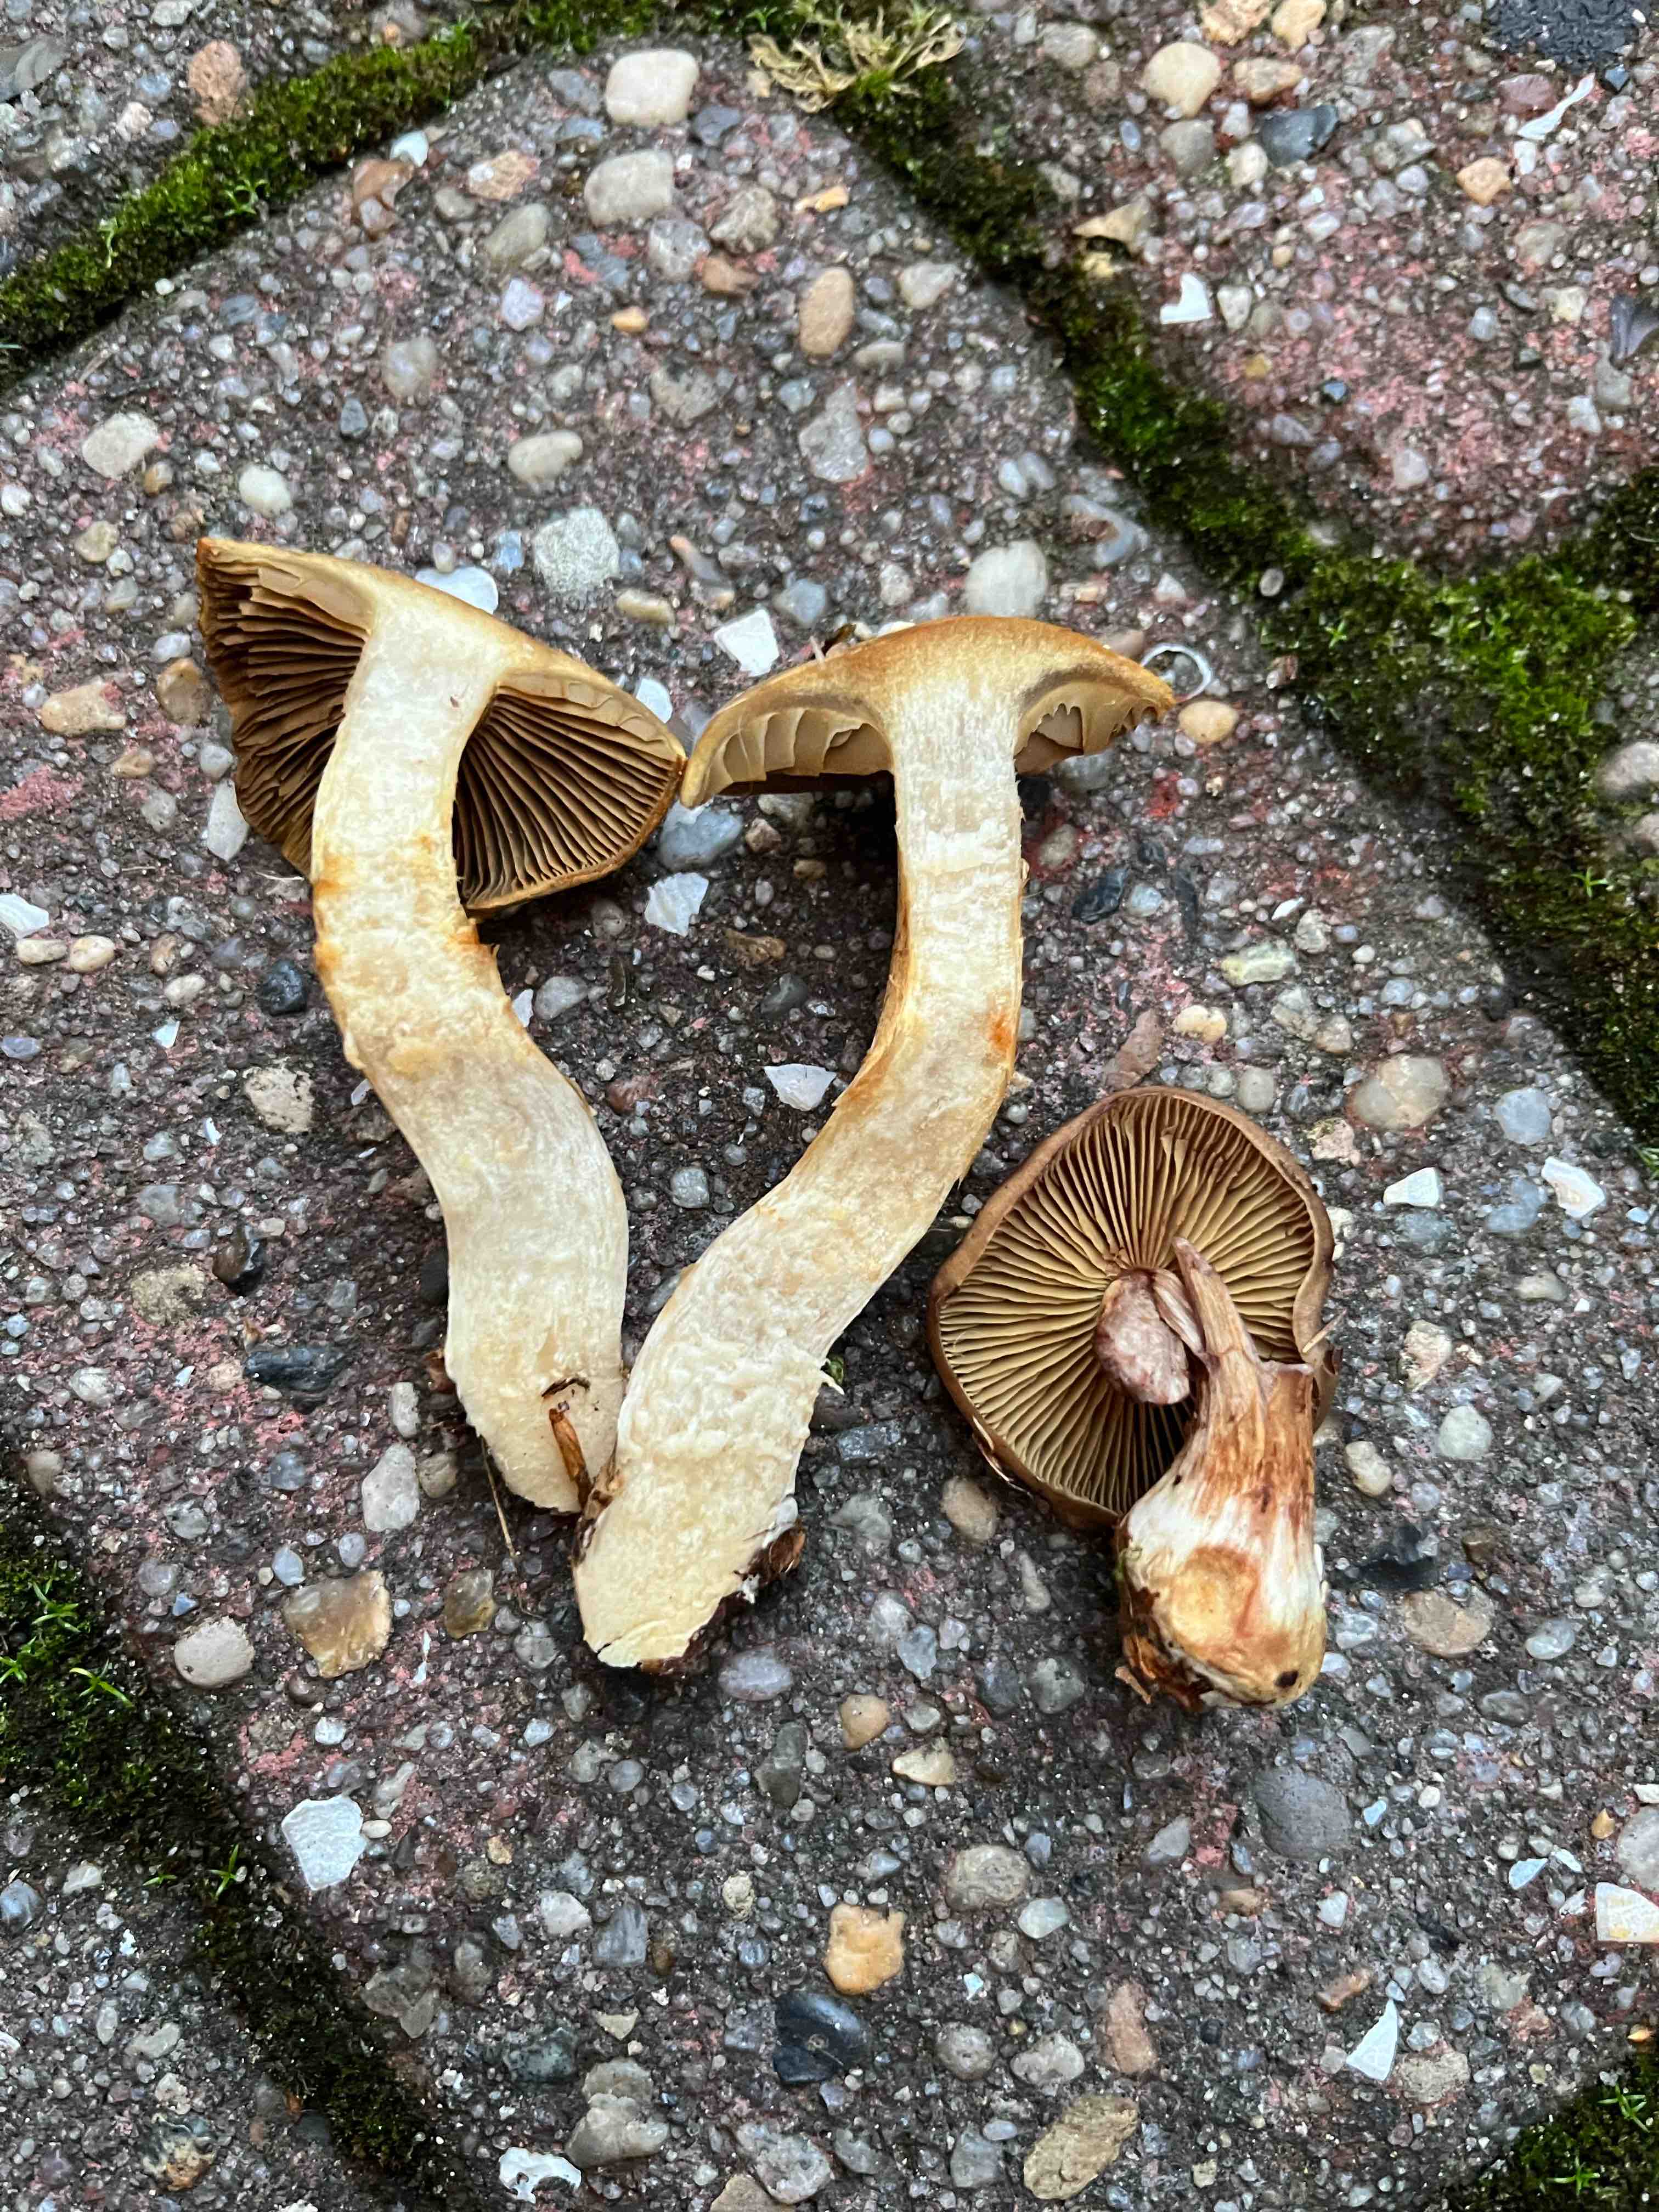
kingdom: Fungi
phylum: Basidiomycota
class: Agaricomycetes
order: Agaricales
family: Cortinariaceae
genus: Cortinarius
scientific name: Cortinarius subtortus
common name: olivengul slørhat
